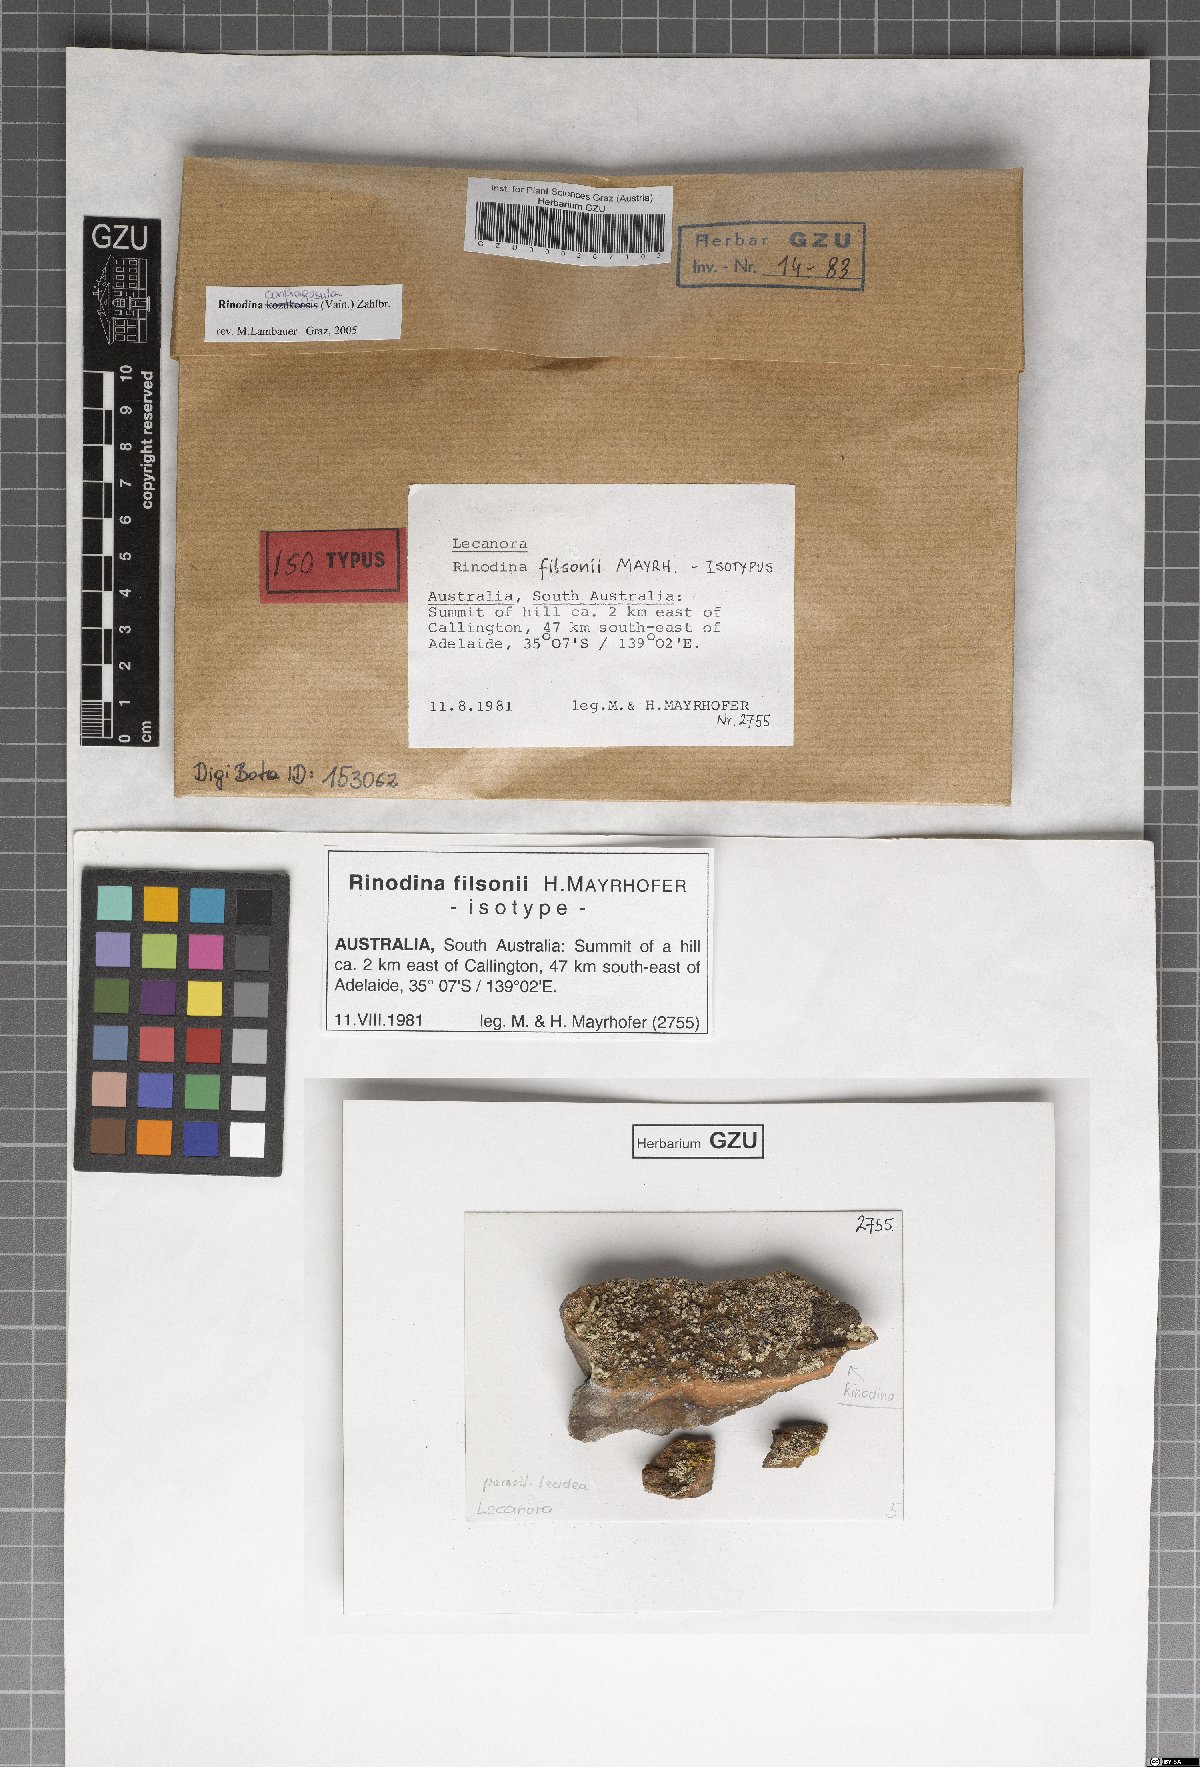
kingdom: Fungi
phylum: Ascomycota
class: Lecanoromycetes
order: Caliciales
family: Physciaceae
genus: Rinodina
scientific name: Rinodina filsonii
